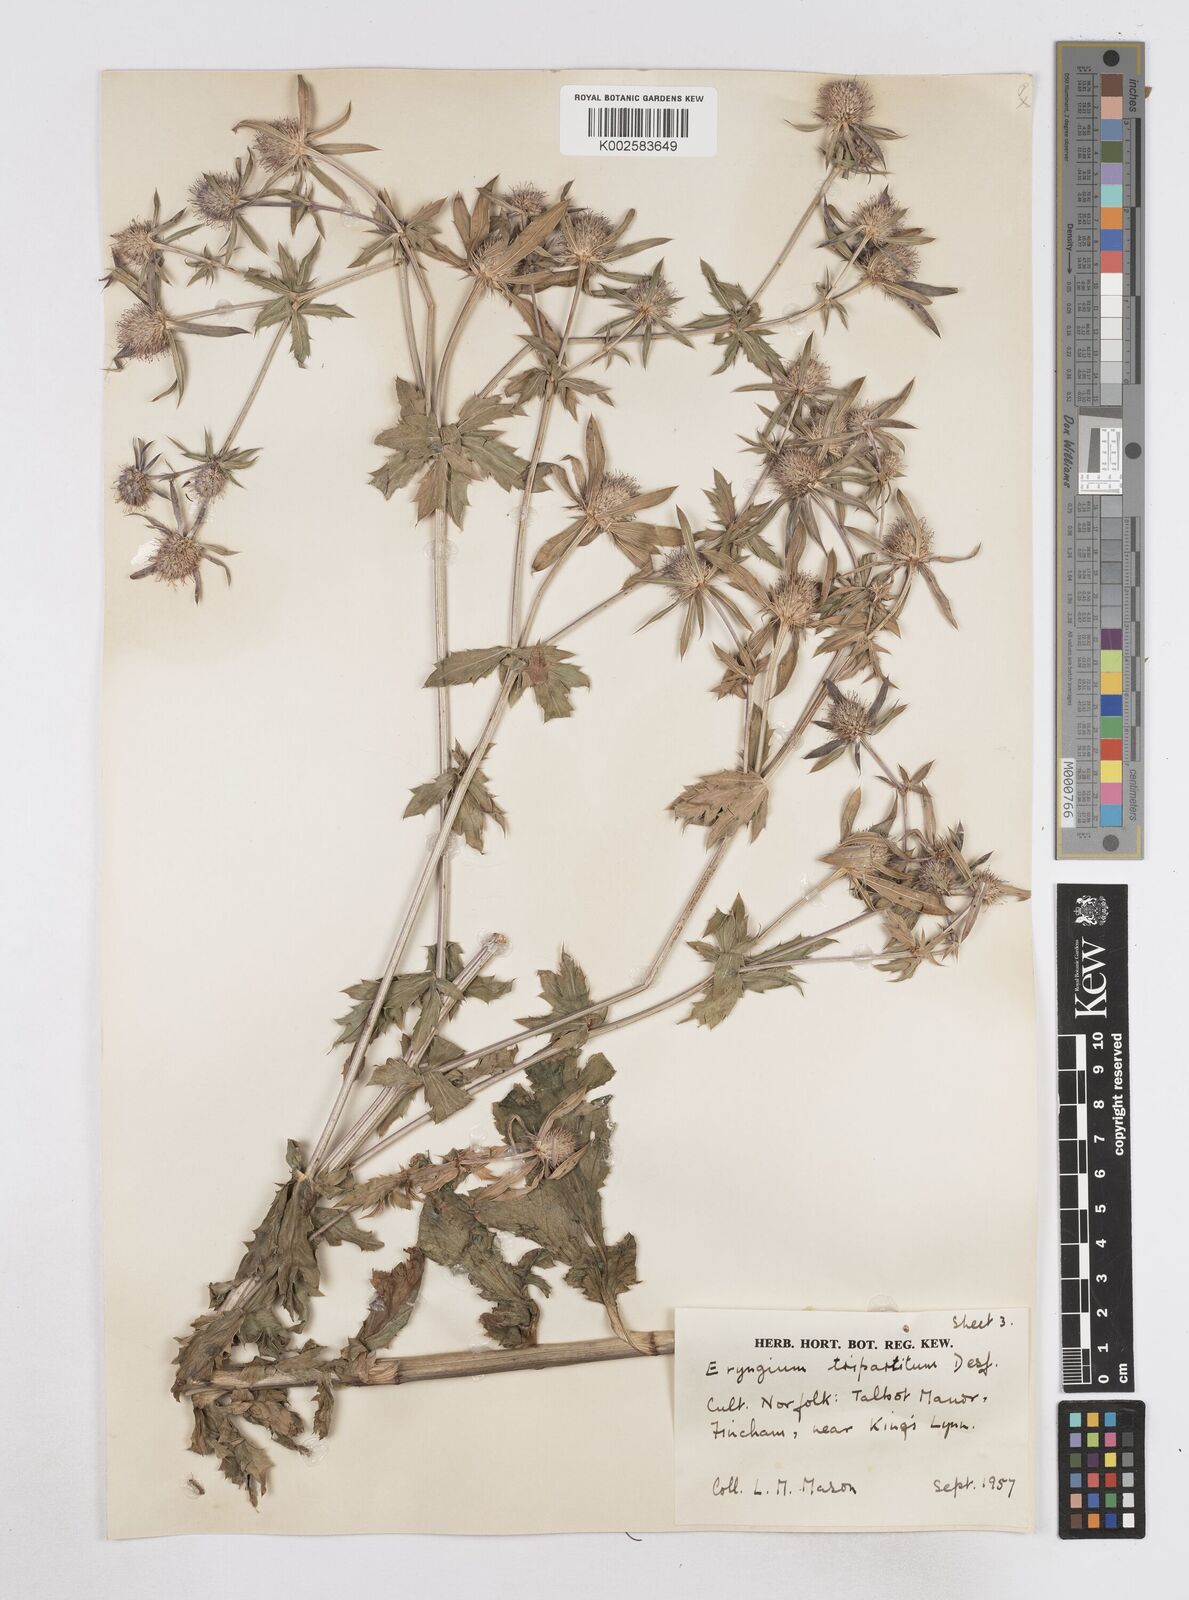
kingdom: Plantae
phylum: Tracheophyta
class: Magnoliopsida
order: Apiales
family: Apiaceae
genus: Eryngium
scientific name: Eryngium tripartitum
